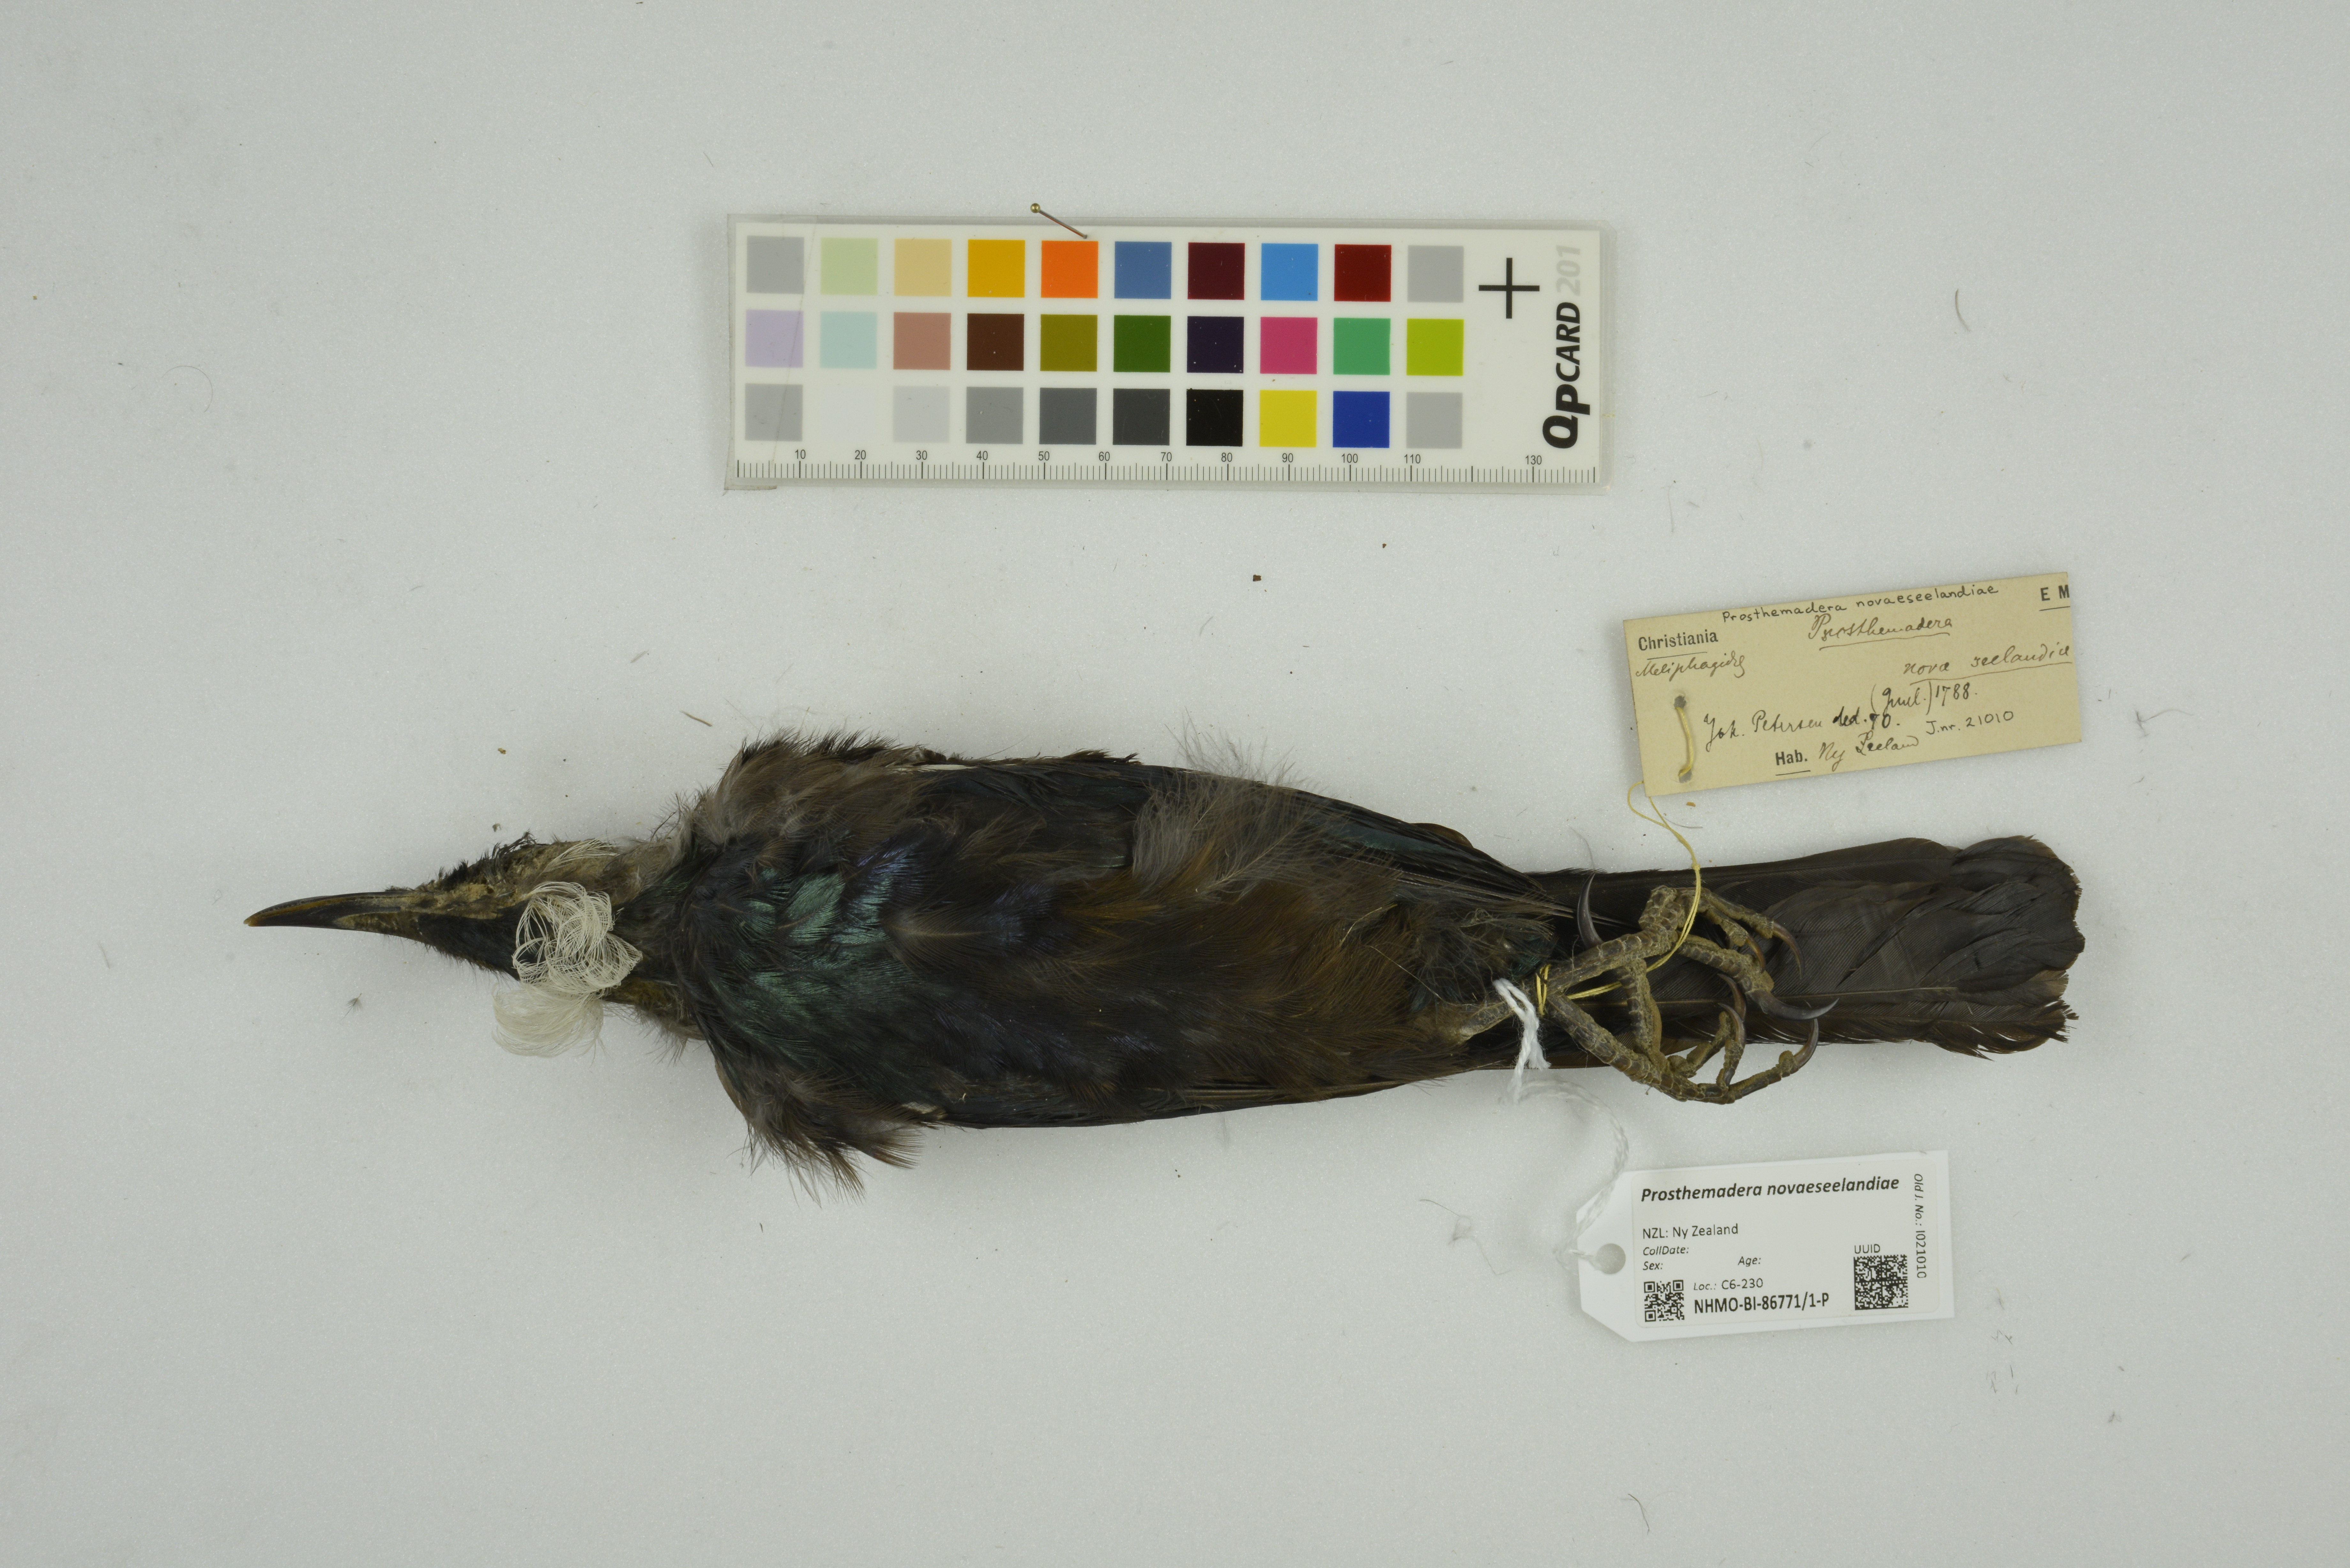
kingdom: Animalia
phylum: Chordata
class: Aves
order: Passeriformes
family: Meliphagidae
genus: Prosthemadera
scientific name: Prosthemadera novaeseelandiae
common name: Tui
